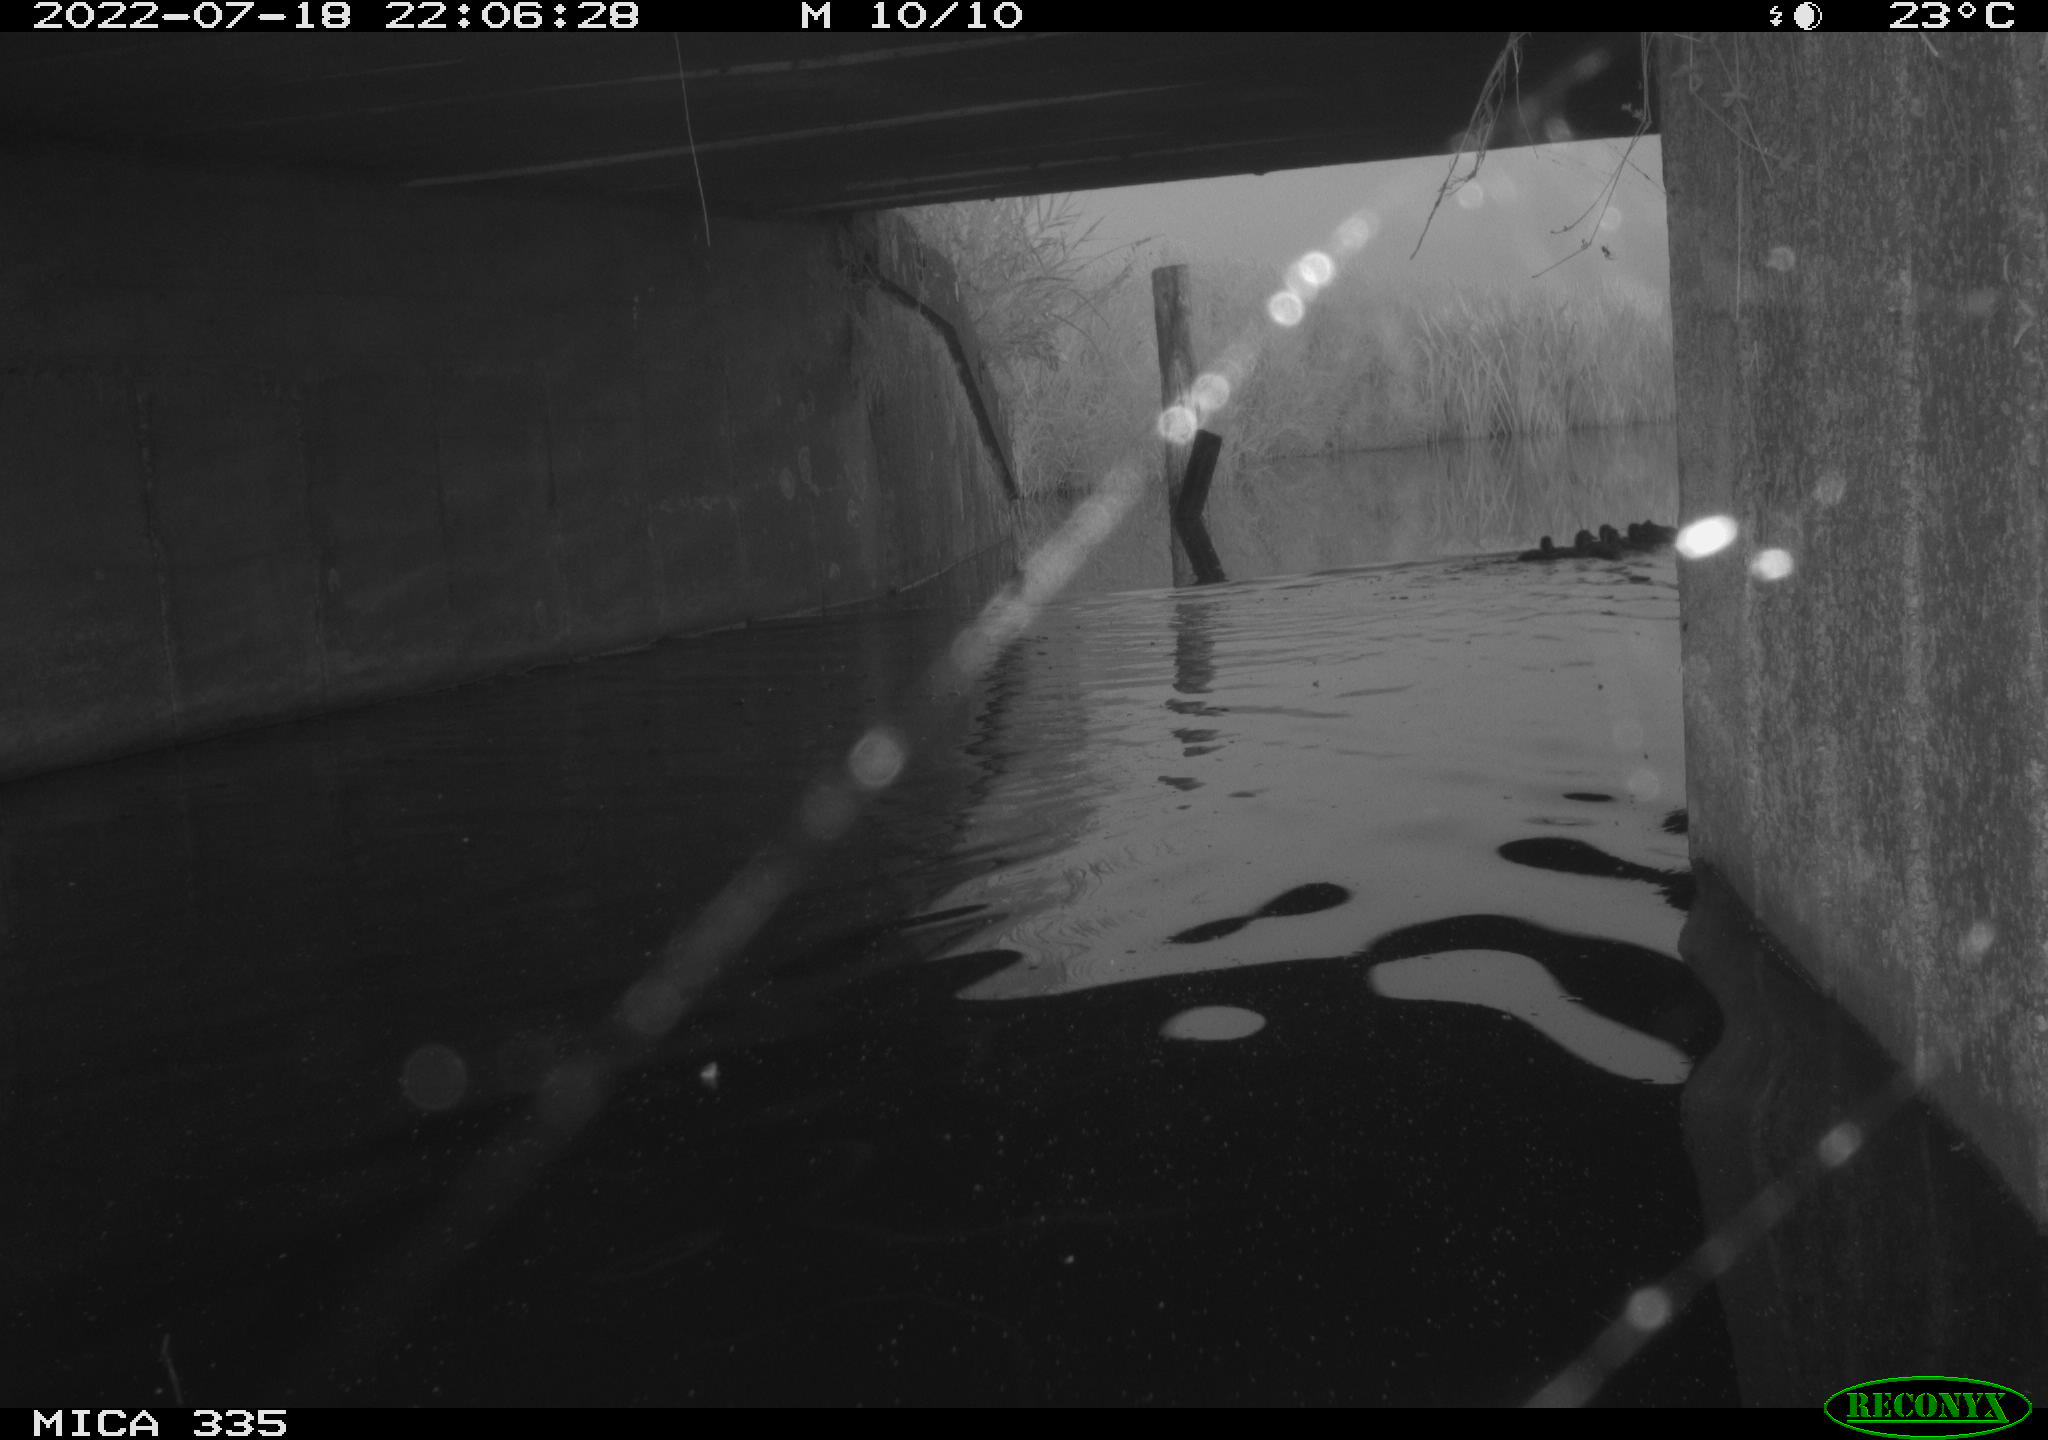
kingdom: Animalia
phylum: Chordata
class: Aves
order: Anseriformes
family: Anatidae
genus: Anas
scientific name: Anas platyrhynchos
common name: Mallard
